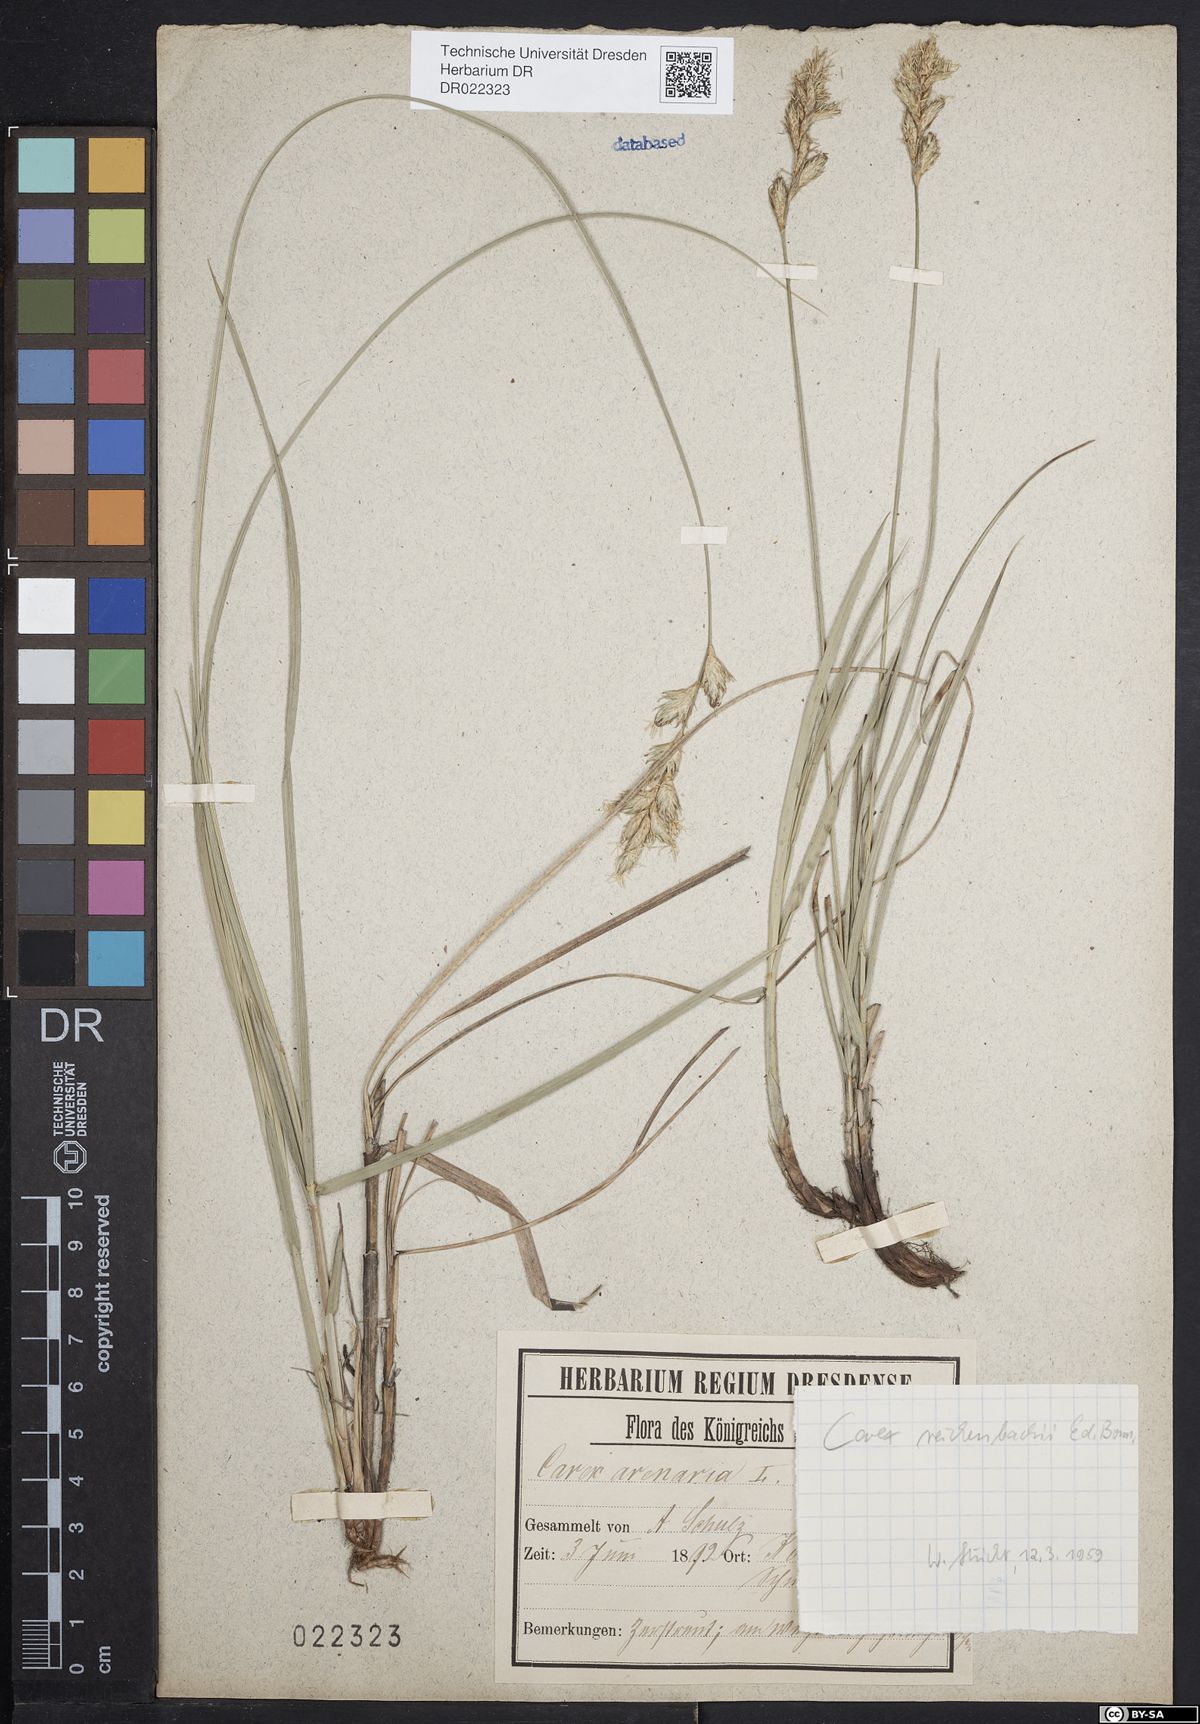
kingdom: Plantae
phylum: Tracheophyta
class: Liliopsida
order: Poales
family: Cyperaceae
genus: Carex
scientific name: Carex arenaria
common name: Sand sedge
